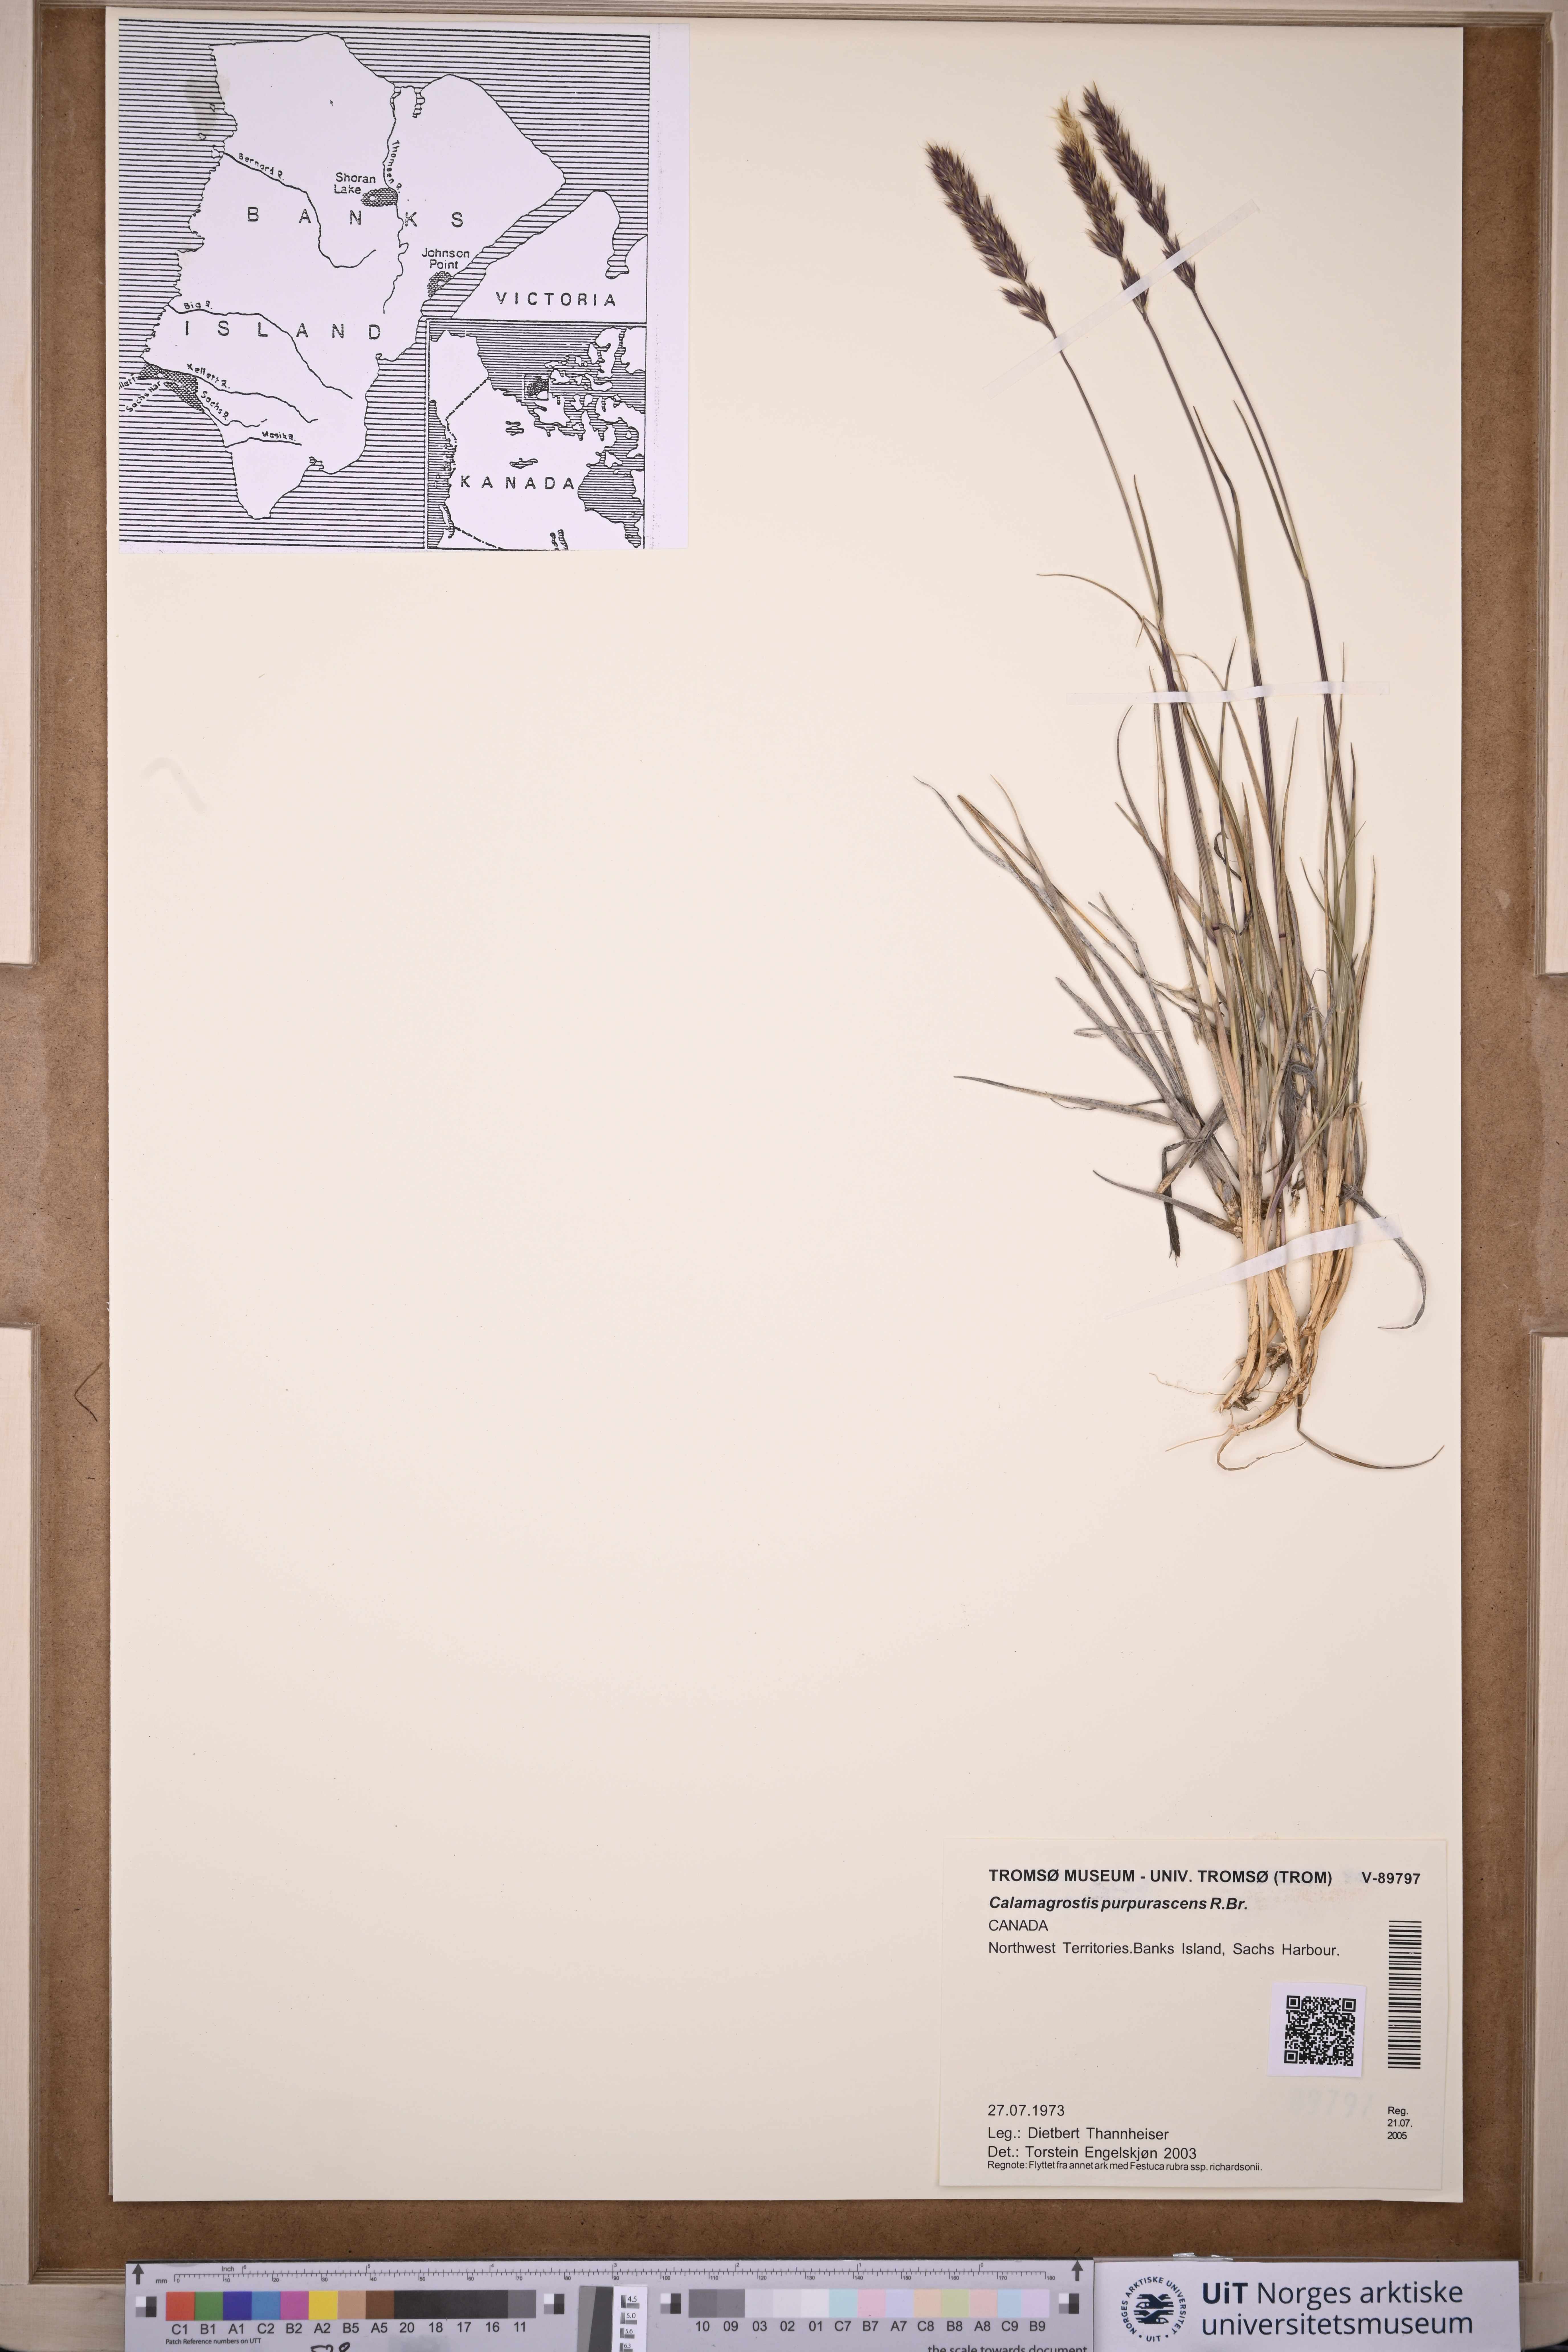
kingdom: Plantae
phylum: Tracheophyta
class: Liliopsida
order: Poales
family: Poaceae
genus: Calamagrostis
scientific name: Calamagrostis purpurascens
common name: Purple reedgrass
